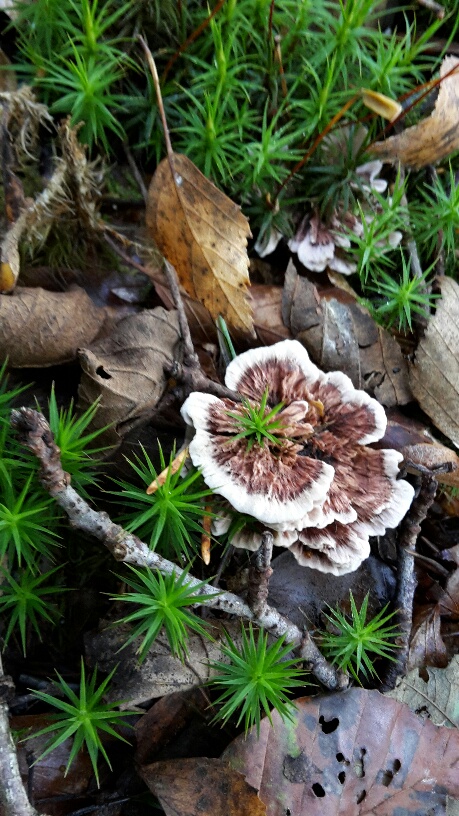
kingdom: Fungi
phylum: Basidiomycota
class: Agaricomycetes
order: Thelephorales
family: Bankeraceae
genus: Hydnellum
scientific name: Hydnellum concrescens
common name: bæltet korkpigsvamp
